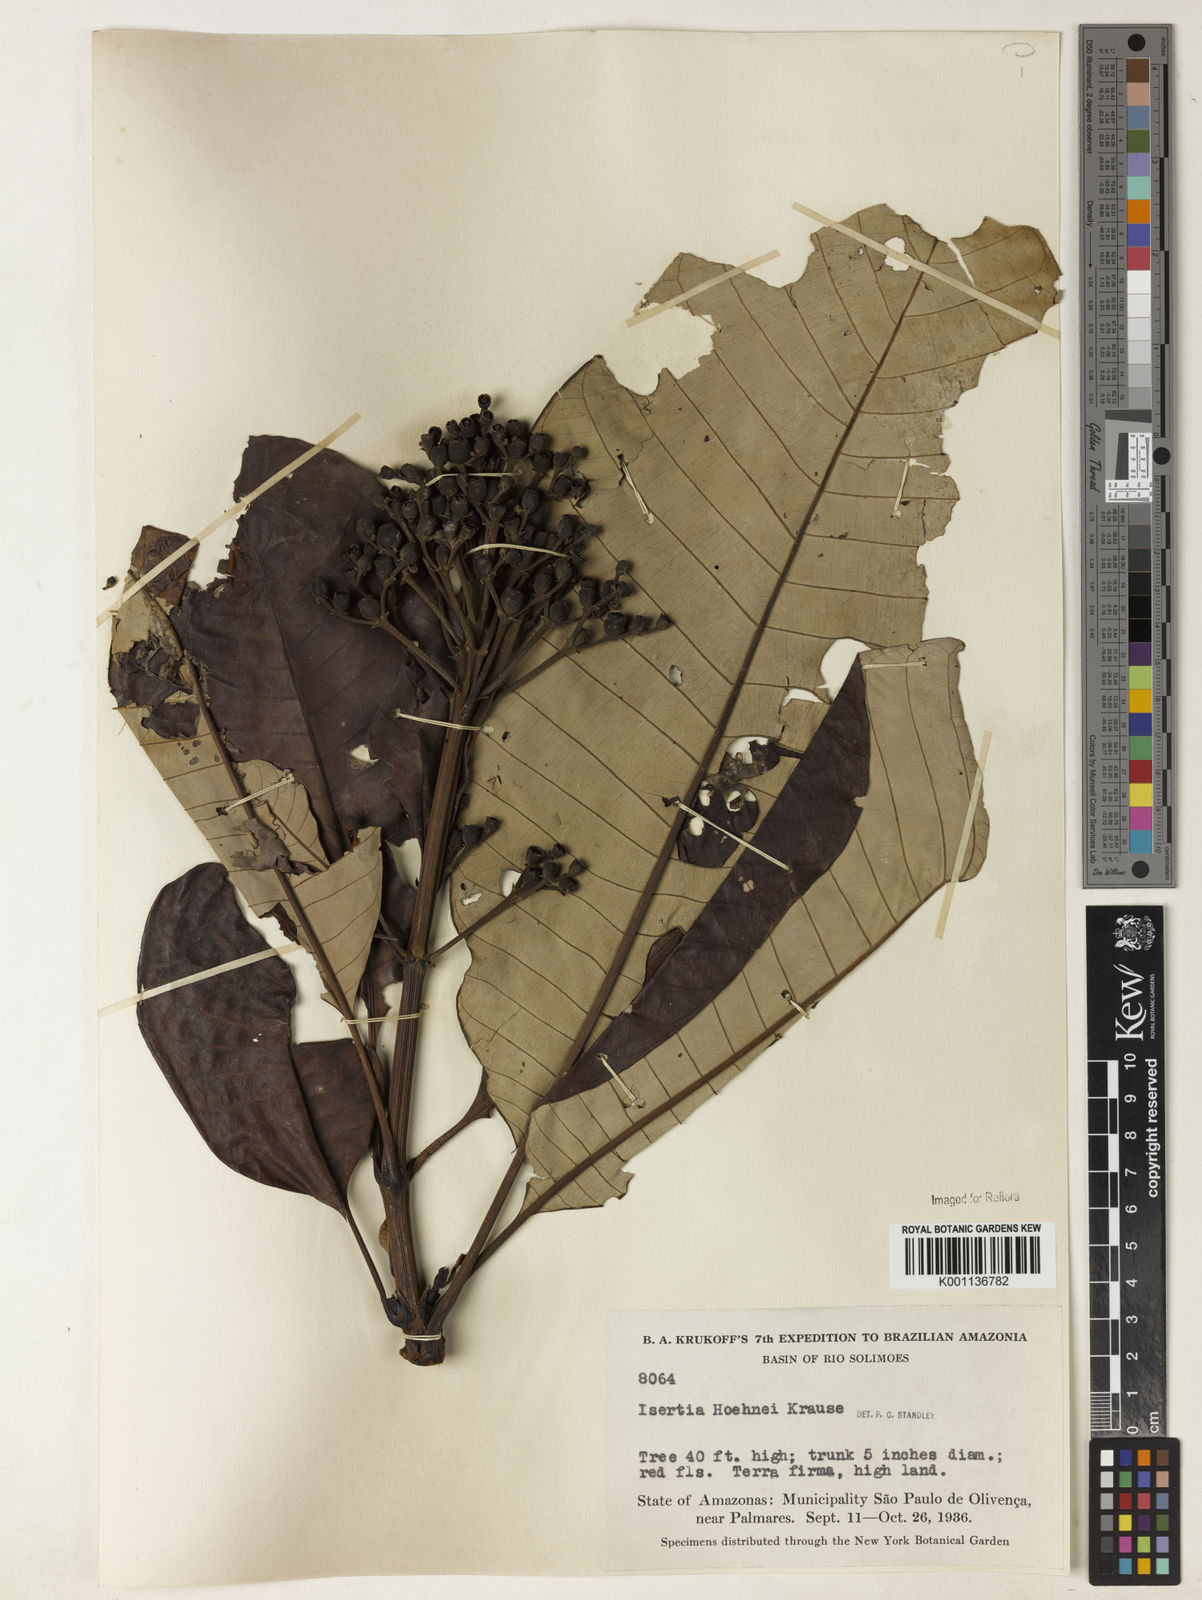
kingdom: Plantae
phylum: Tracheophyta
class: Magnoliopsida
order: Gentianales
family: Rubiaceae
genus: Isertia
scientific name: Isertia hypoleuca
